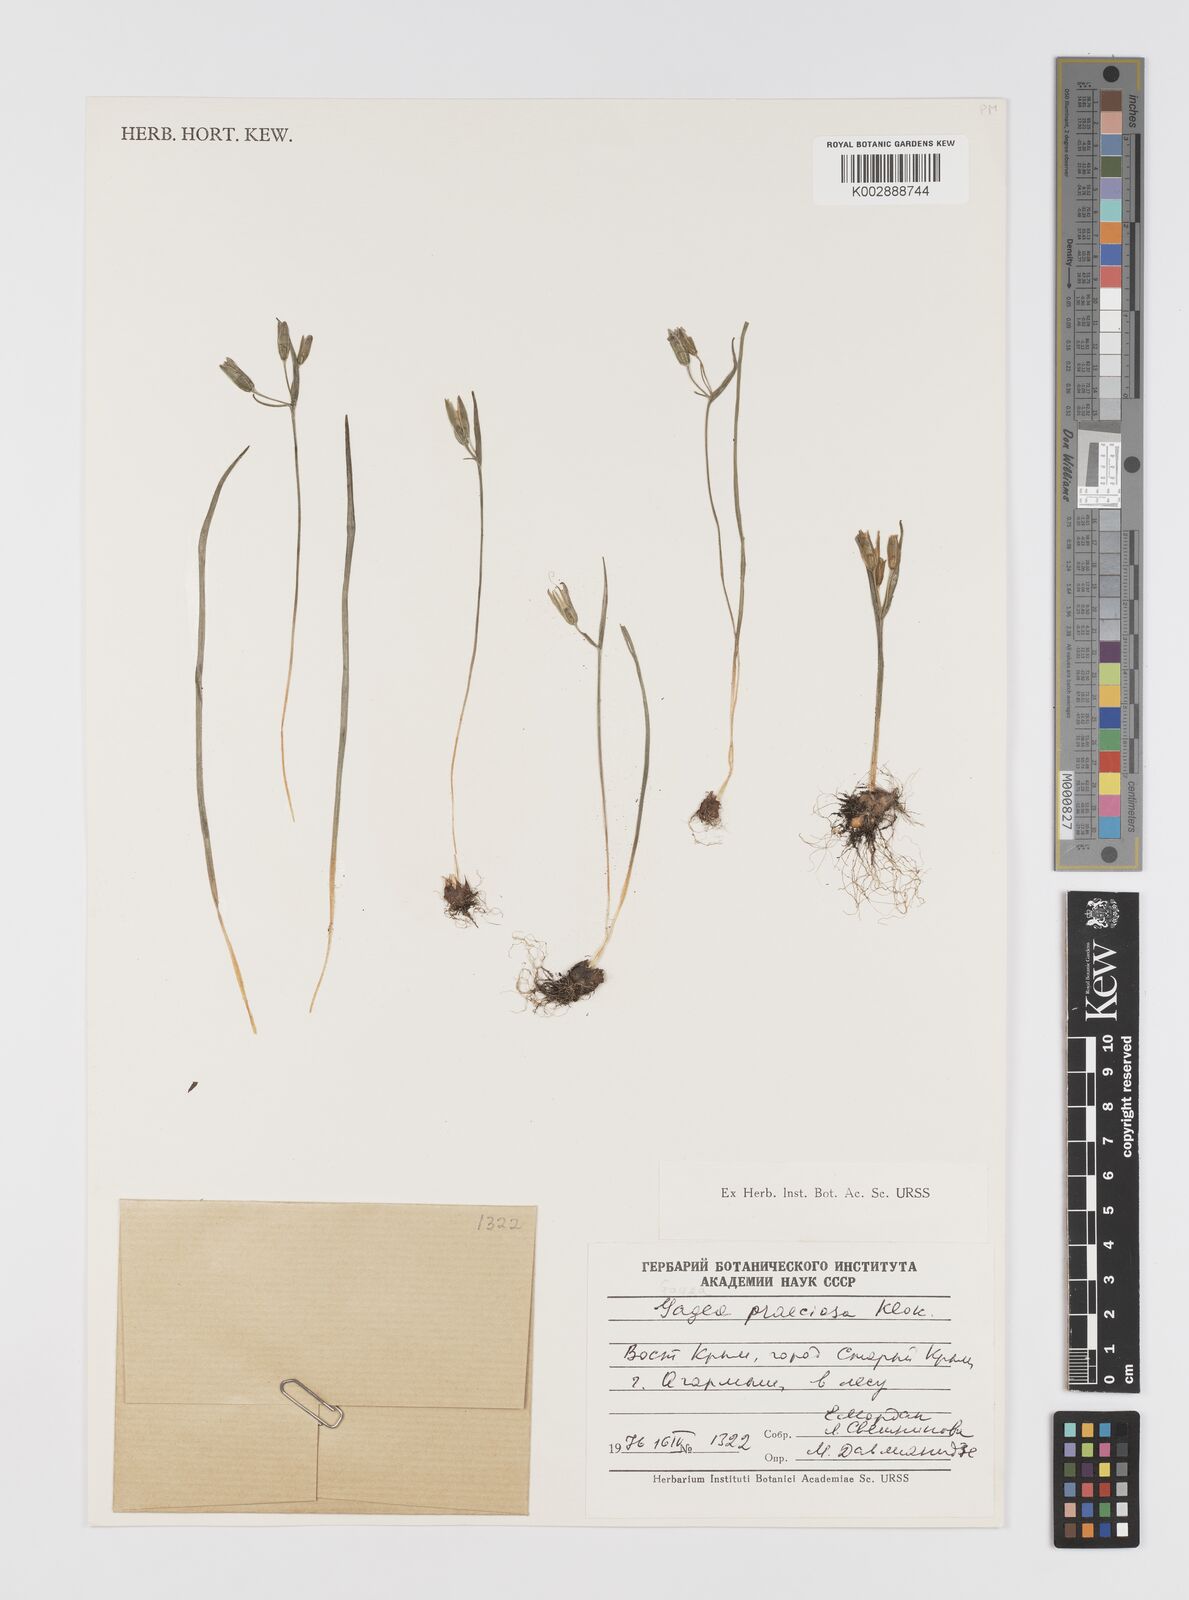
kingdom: Plantae
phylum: Tracheophyta
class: Liliopsida
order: Liliales
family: Liliaceae
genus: Gagea
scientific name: Gagea pusilla
